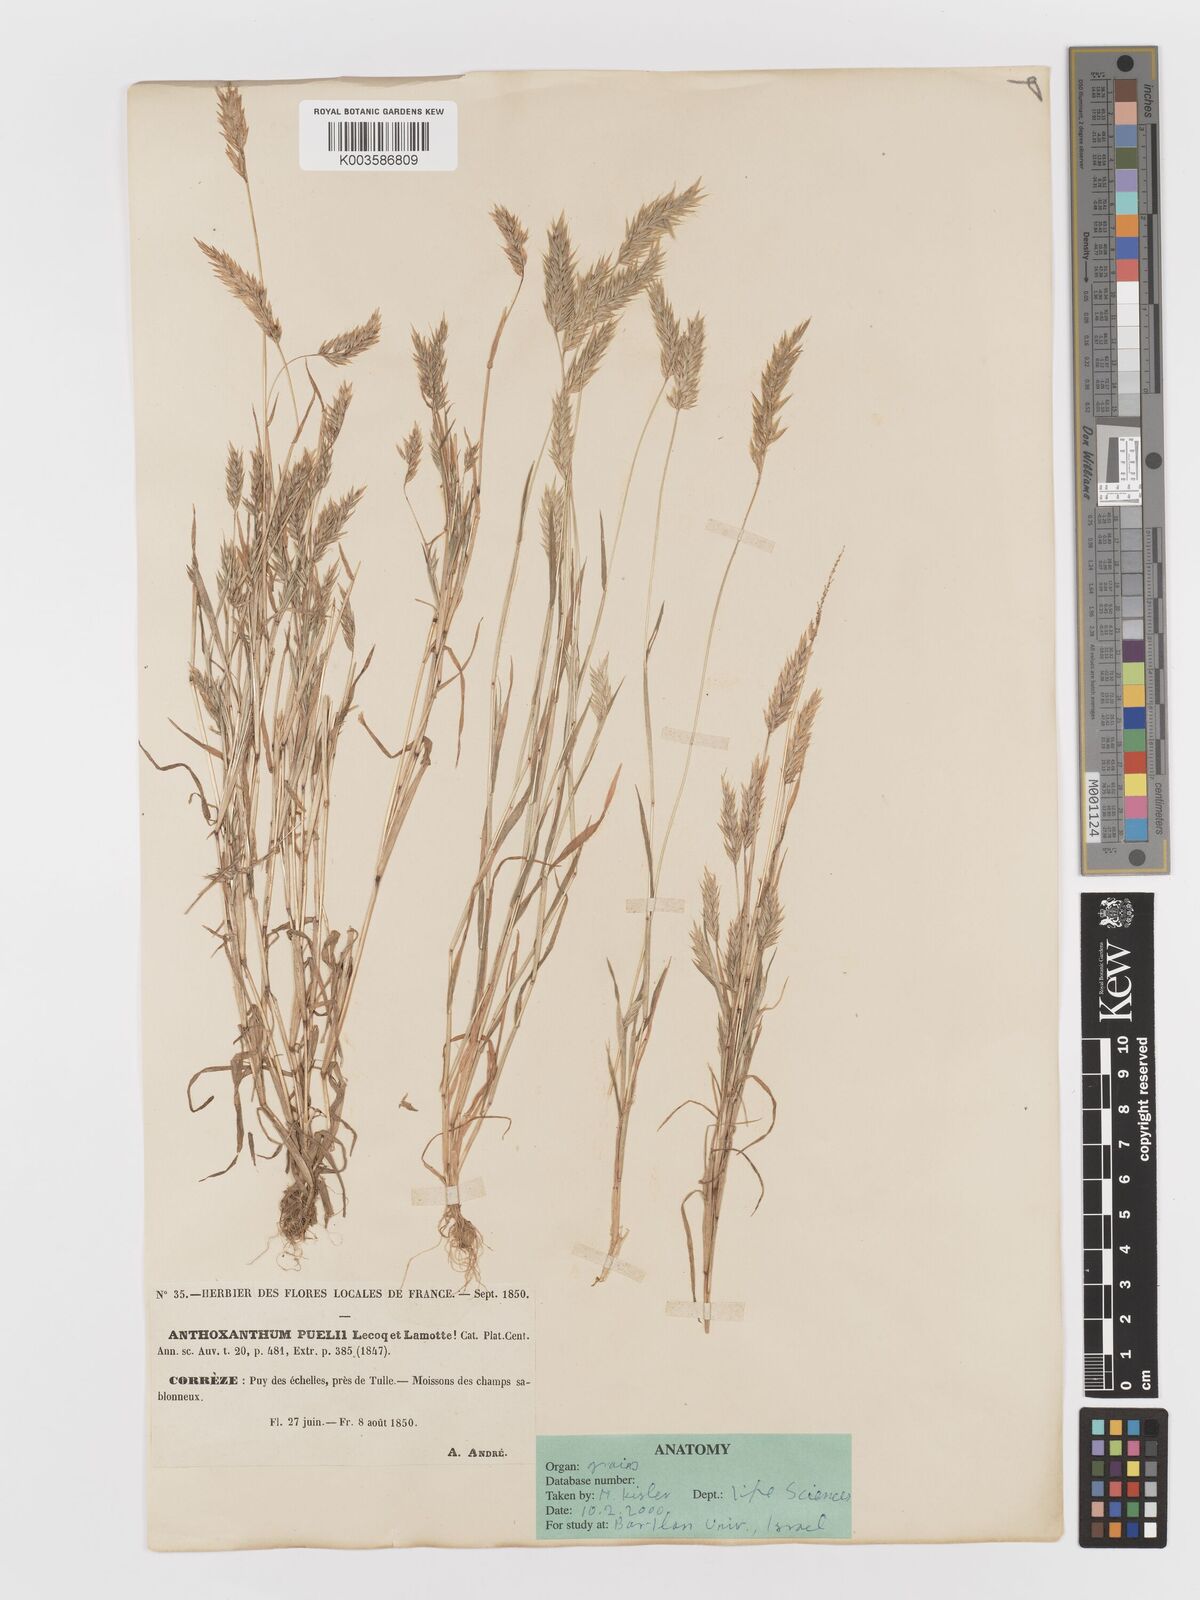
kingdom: Plantae
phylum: Tracheophyta
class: Liliopsida
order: Poales
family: Poaceae
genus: Anthoxanthum
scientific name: Anthoxanthum
